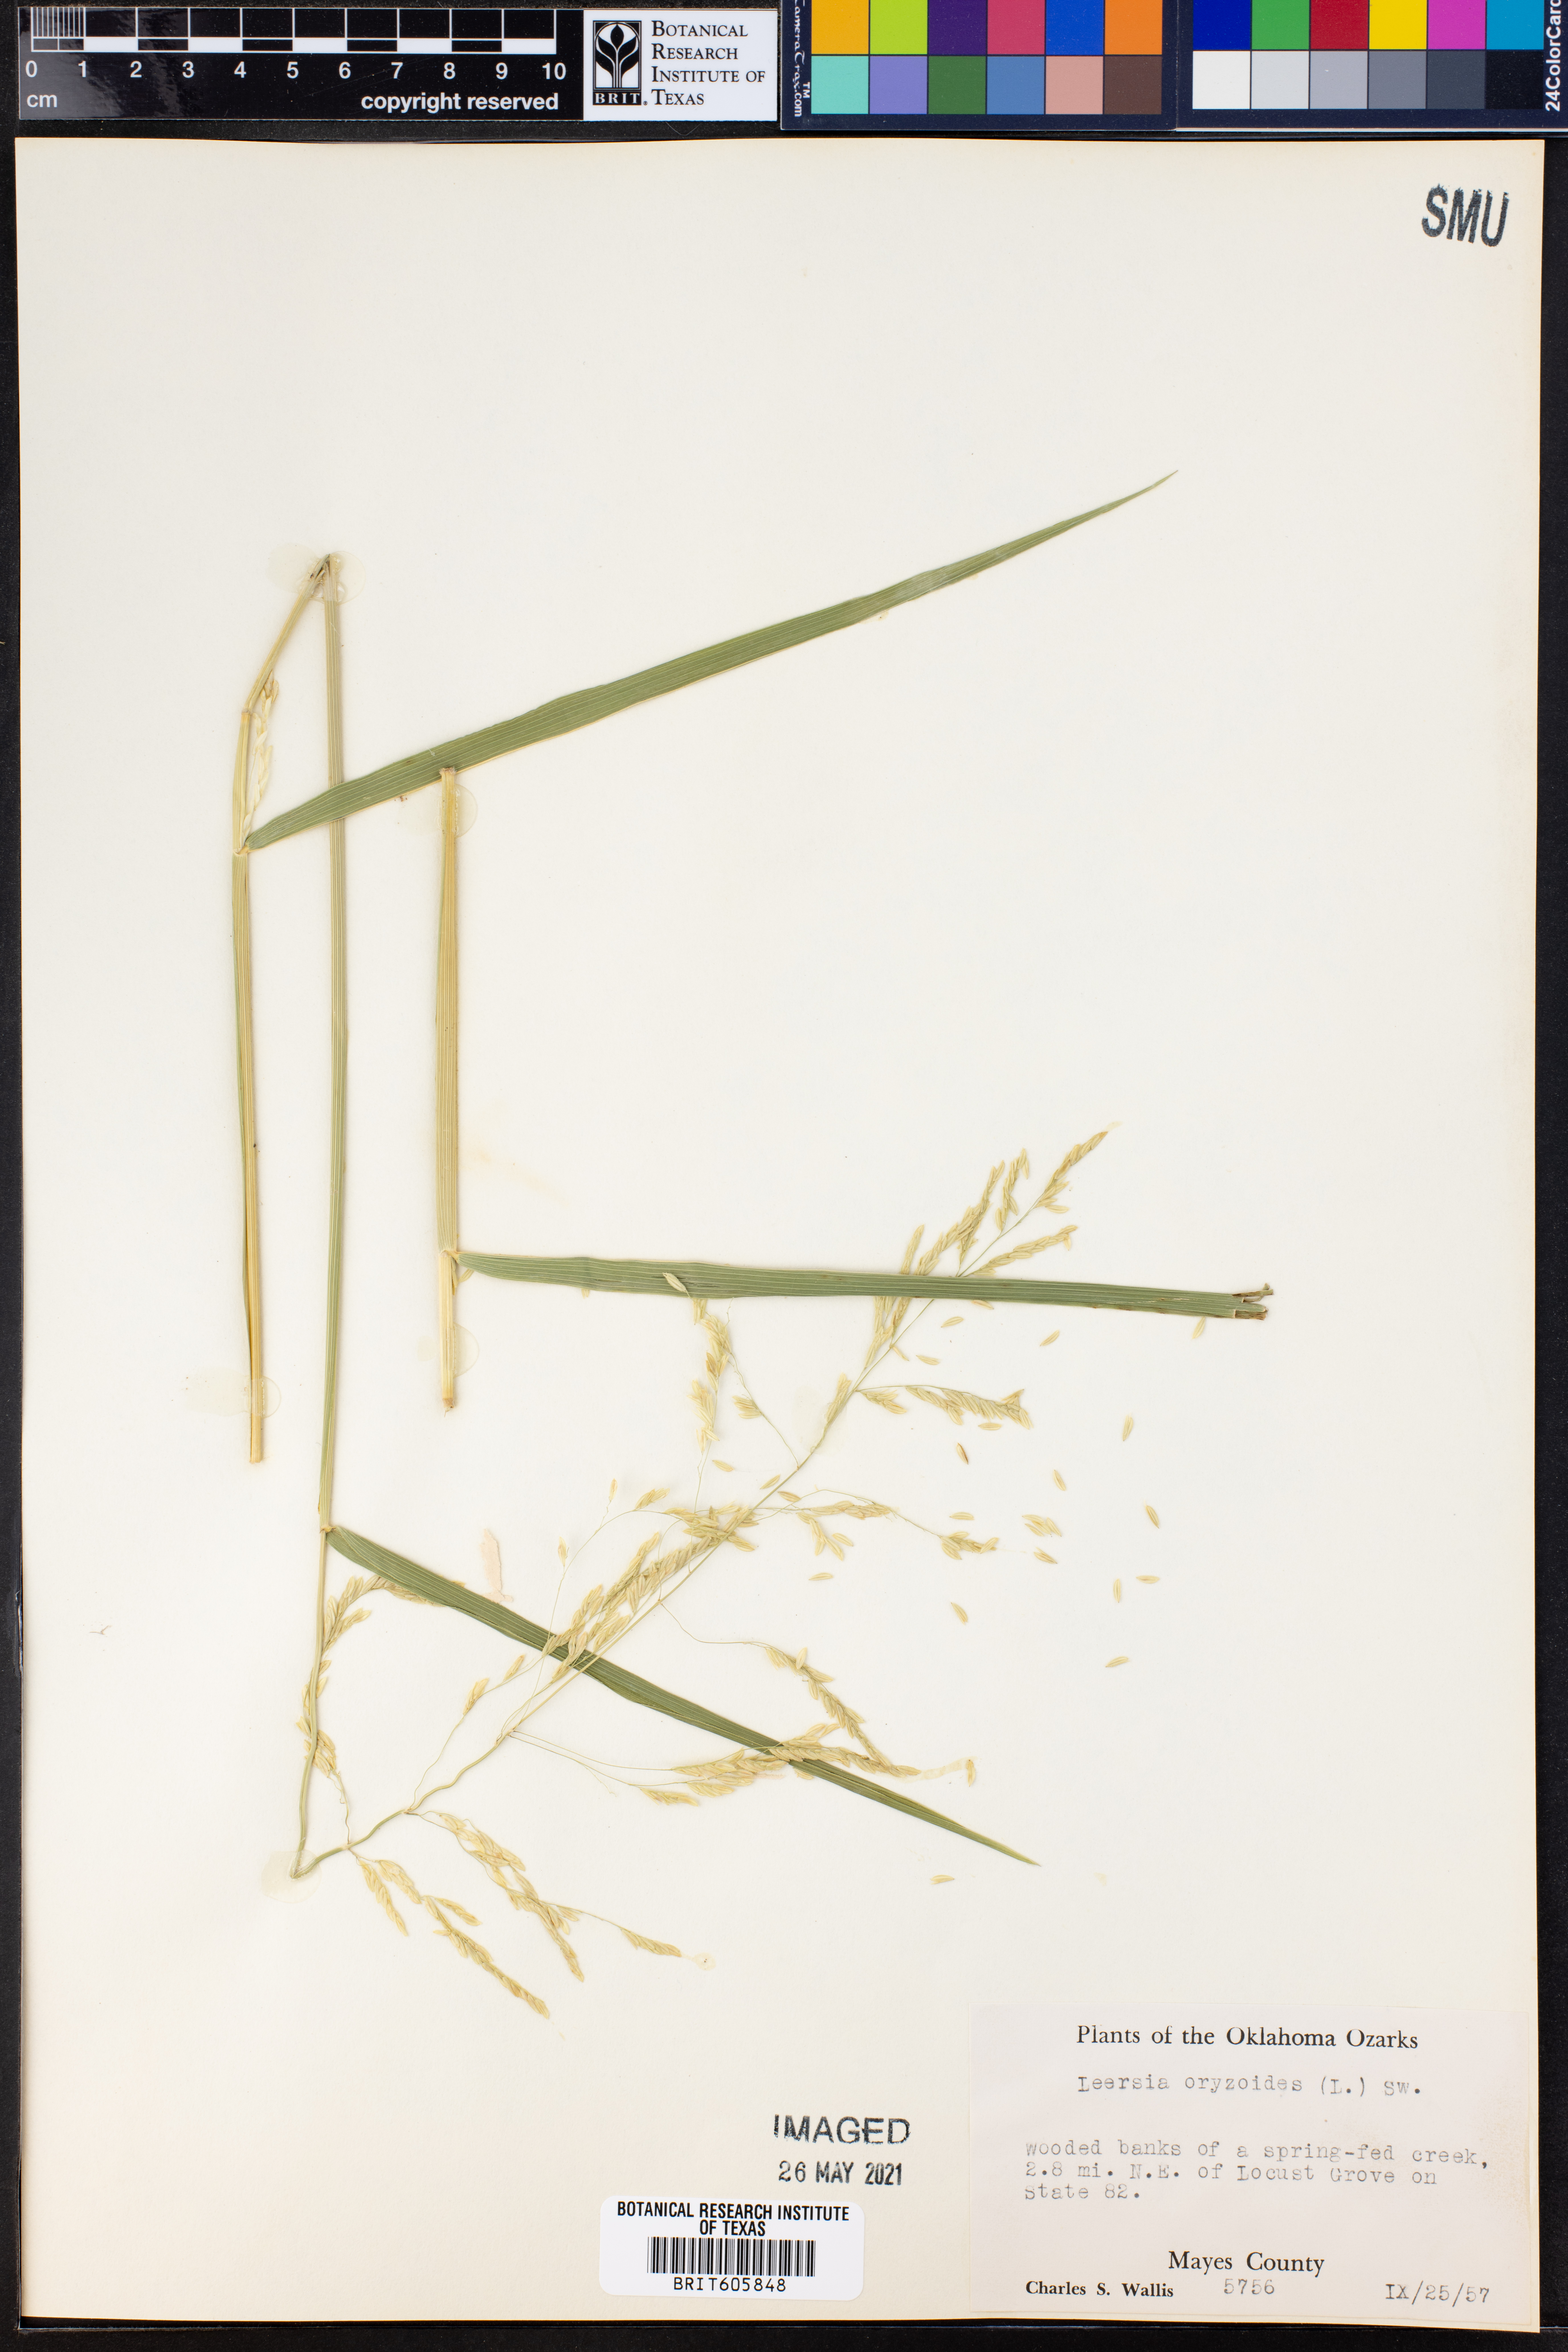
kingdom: Plantae
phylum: Tracheophyta
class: Liliopsida
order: Poales
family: Poaceae
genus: Leersia
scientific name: Leersia oryzoides
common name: Cut-grass
